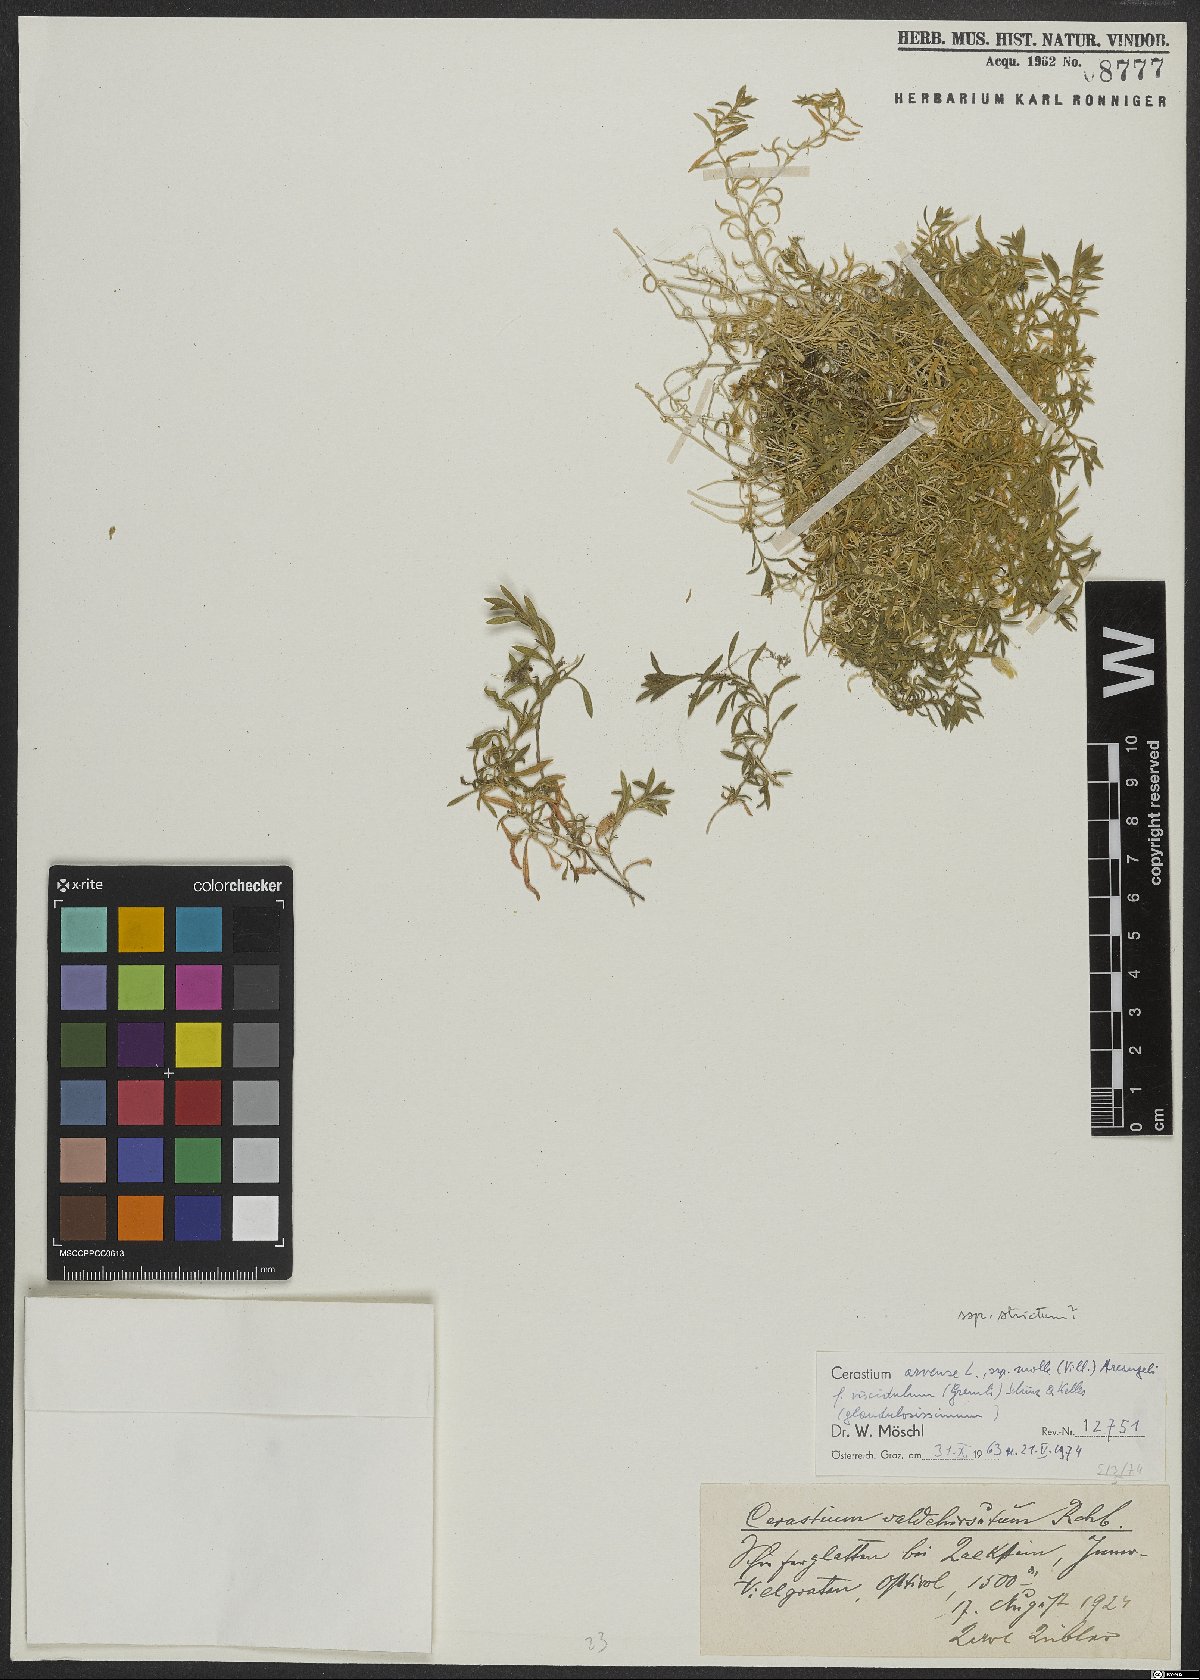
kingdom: Plantae
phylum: Tracheophyta
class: Magnoliopsida
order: Caryophyllales
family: Caryophyllaceae
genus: Cerastium
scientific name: Cerastium arvense
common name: Field mouse-ear
